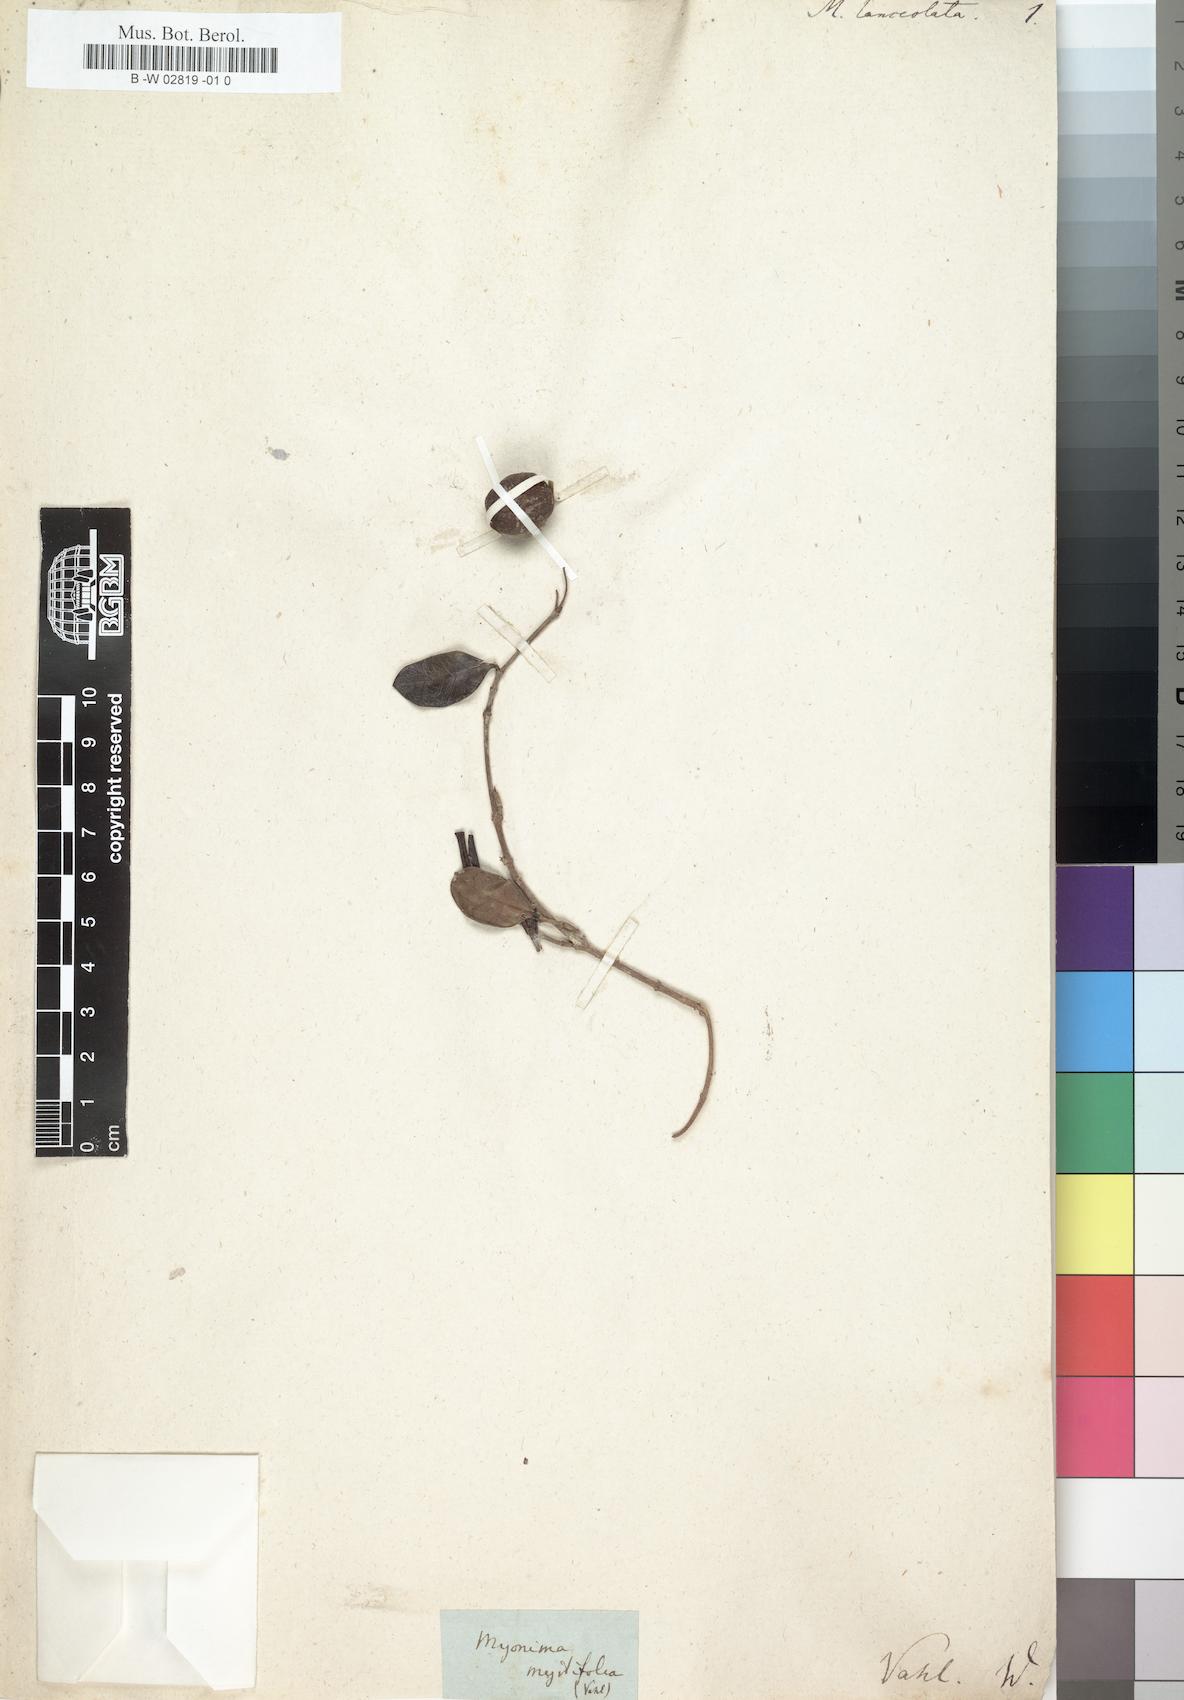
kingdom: Plantae
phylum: Tracheophyta
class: Magnoliopsida
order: Gentianales
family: Rubiaceae
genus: Ixora
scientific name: Ixora borboniae
